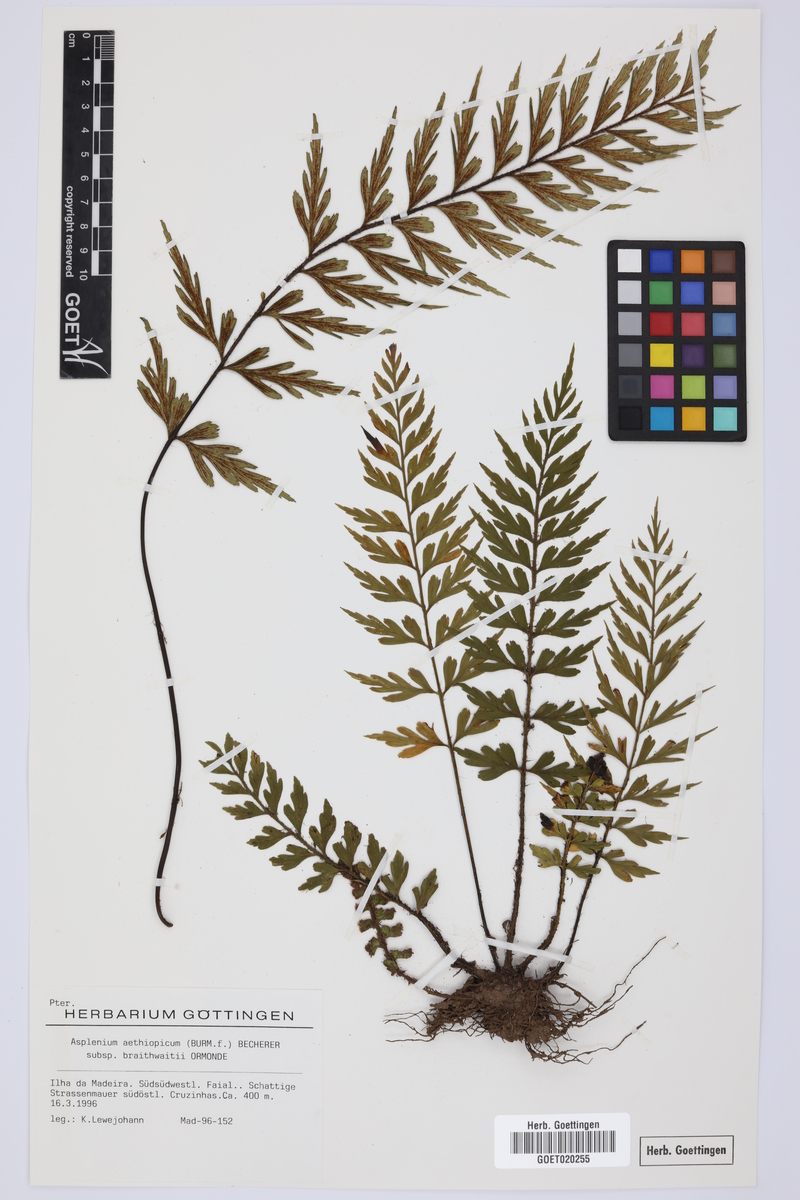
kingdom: Plantae
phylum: Tracheophyta
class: Polypodiopsida
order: Polypodiales
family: Aspleniaceae
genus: Asplenium
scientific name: Asplenium braithwaitei
